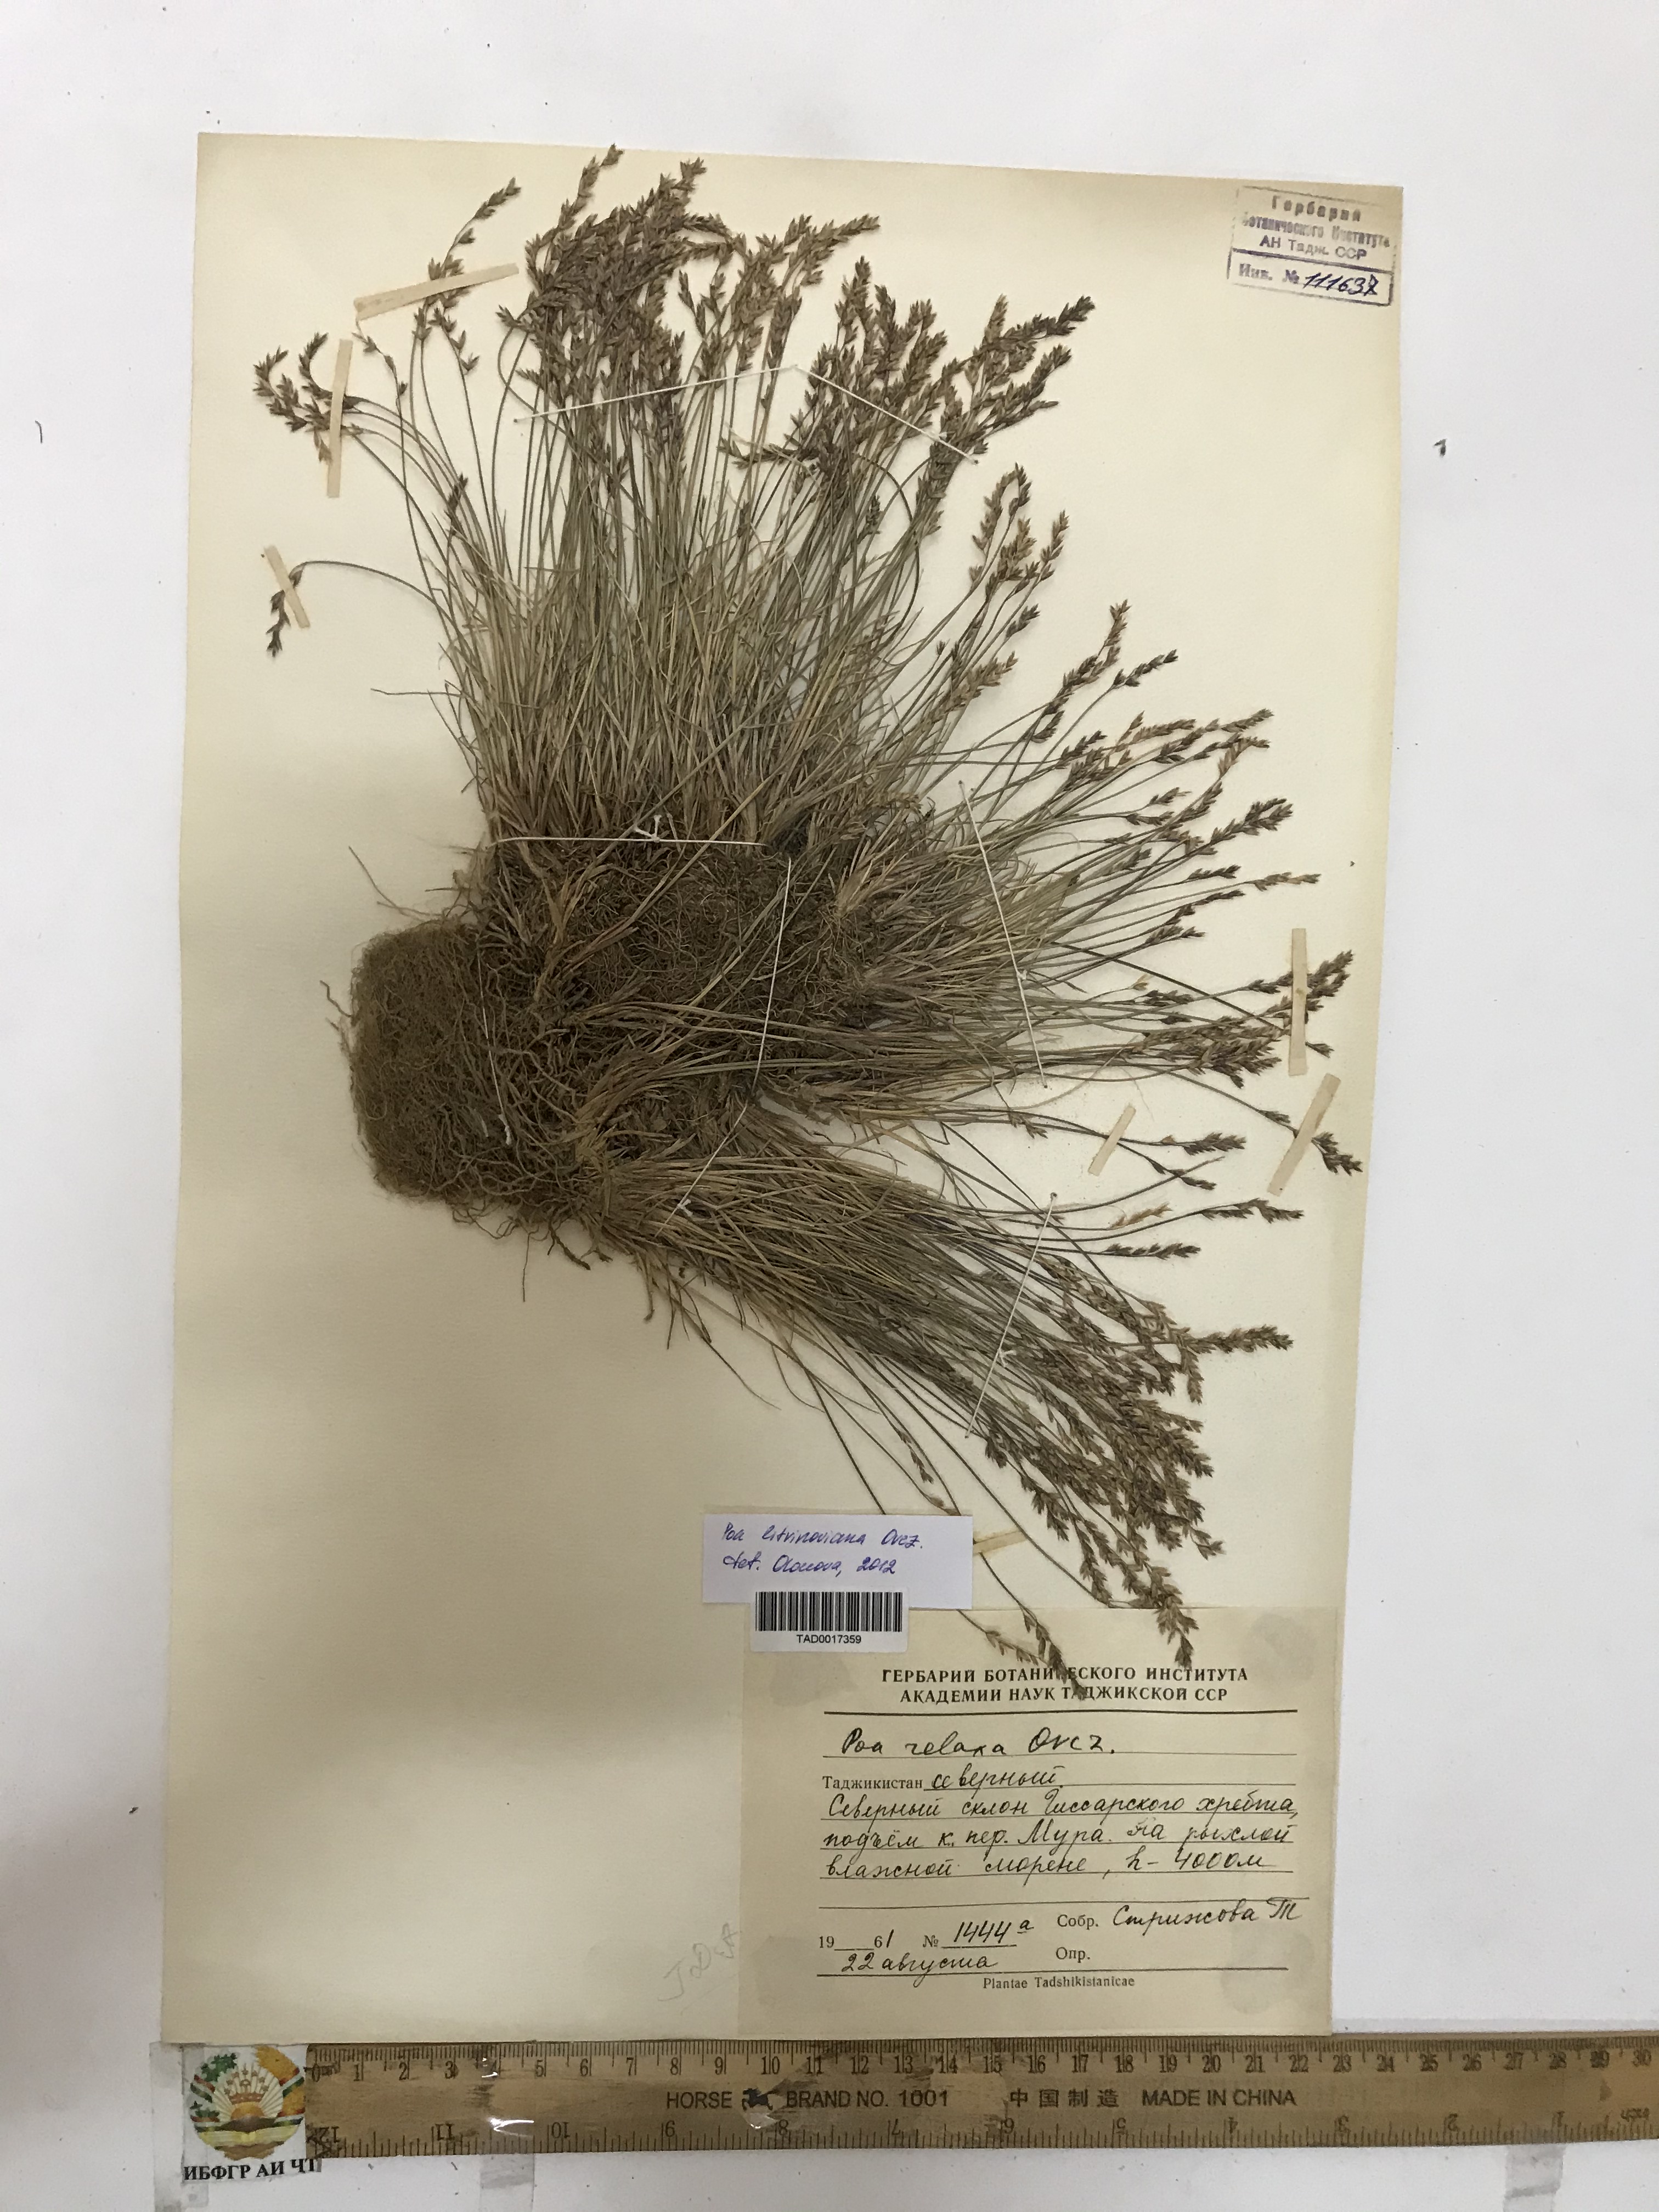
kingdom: Plantae
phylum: Tracheophyta
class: Liliopsida
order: Poales
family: Poaceae
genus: Poa
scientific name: Poa reflexa
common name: Nodding bluegrass
